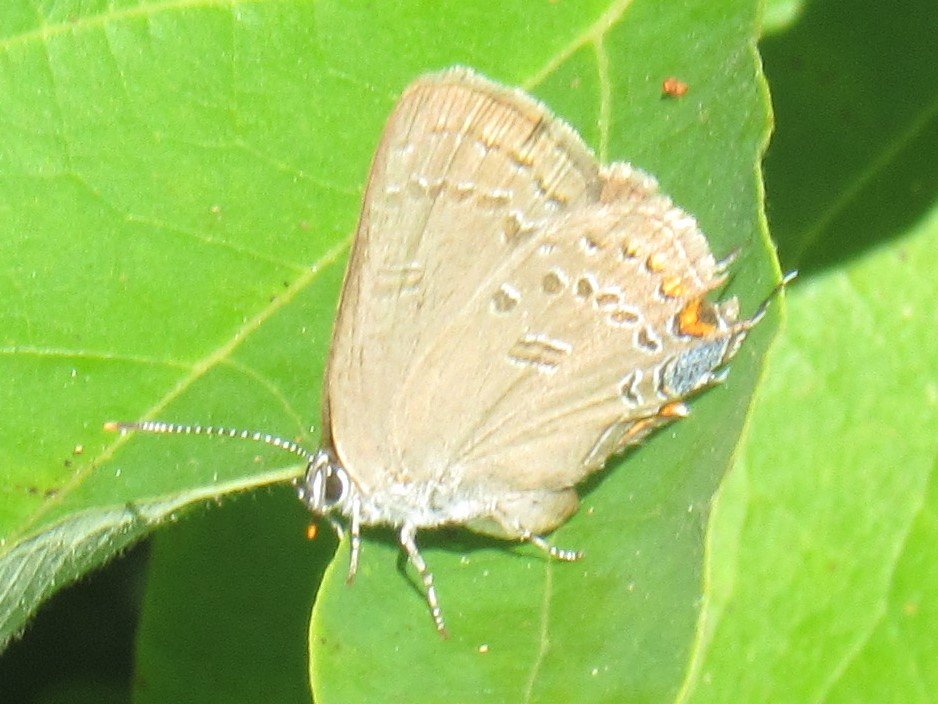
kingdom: Animalia
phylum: Arthropoda
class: Insecta
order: Lepidoptera
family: Lycaenidae
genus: Satyrium
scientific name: Satyrium edwardsii
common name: Edwards' Hairstreak
